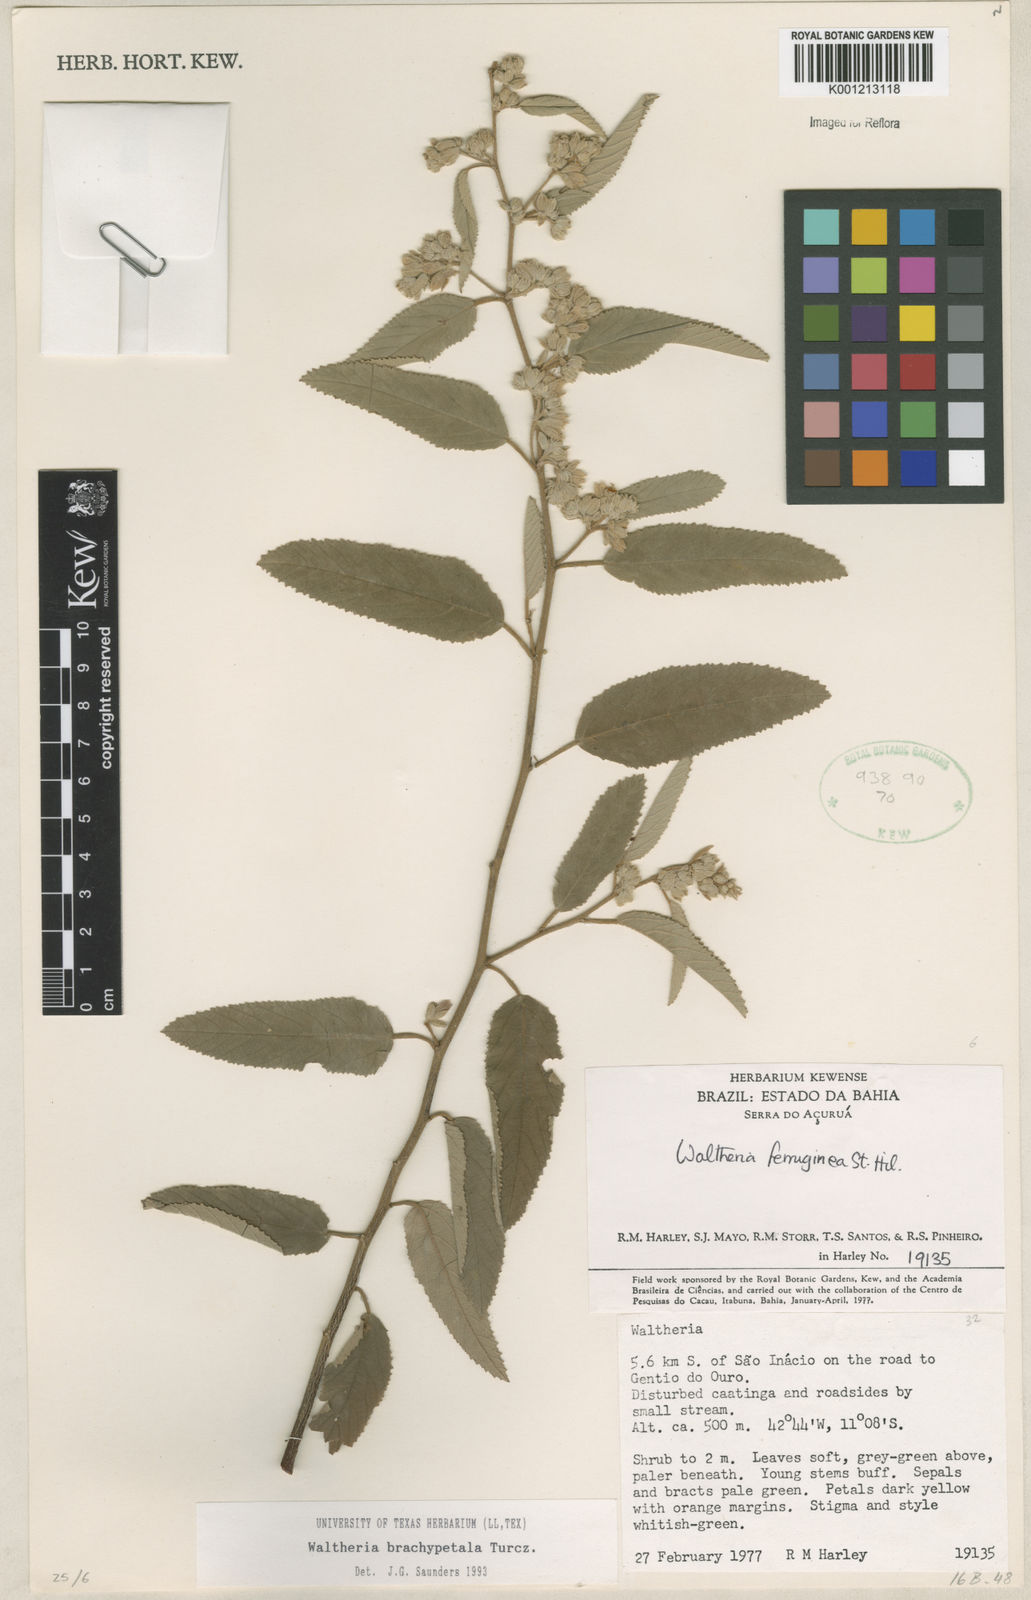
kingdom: Plantae
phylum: Tracheophyta
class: Magnoliopsida
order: Malvales
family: Malvaceae
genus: Waltheria
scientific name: Waltheria ferruginea
